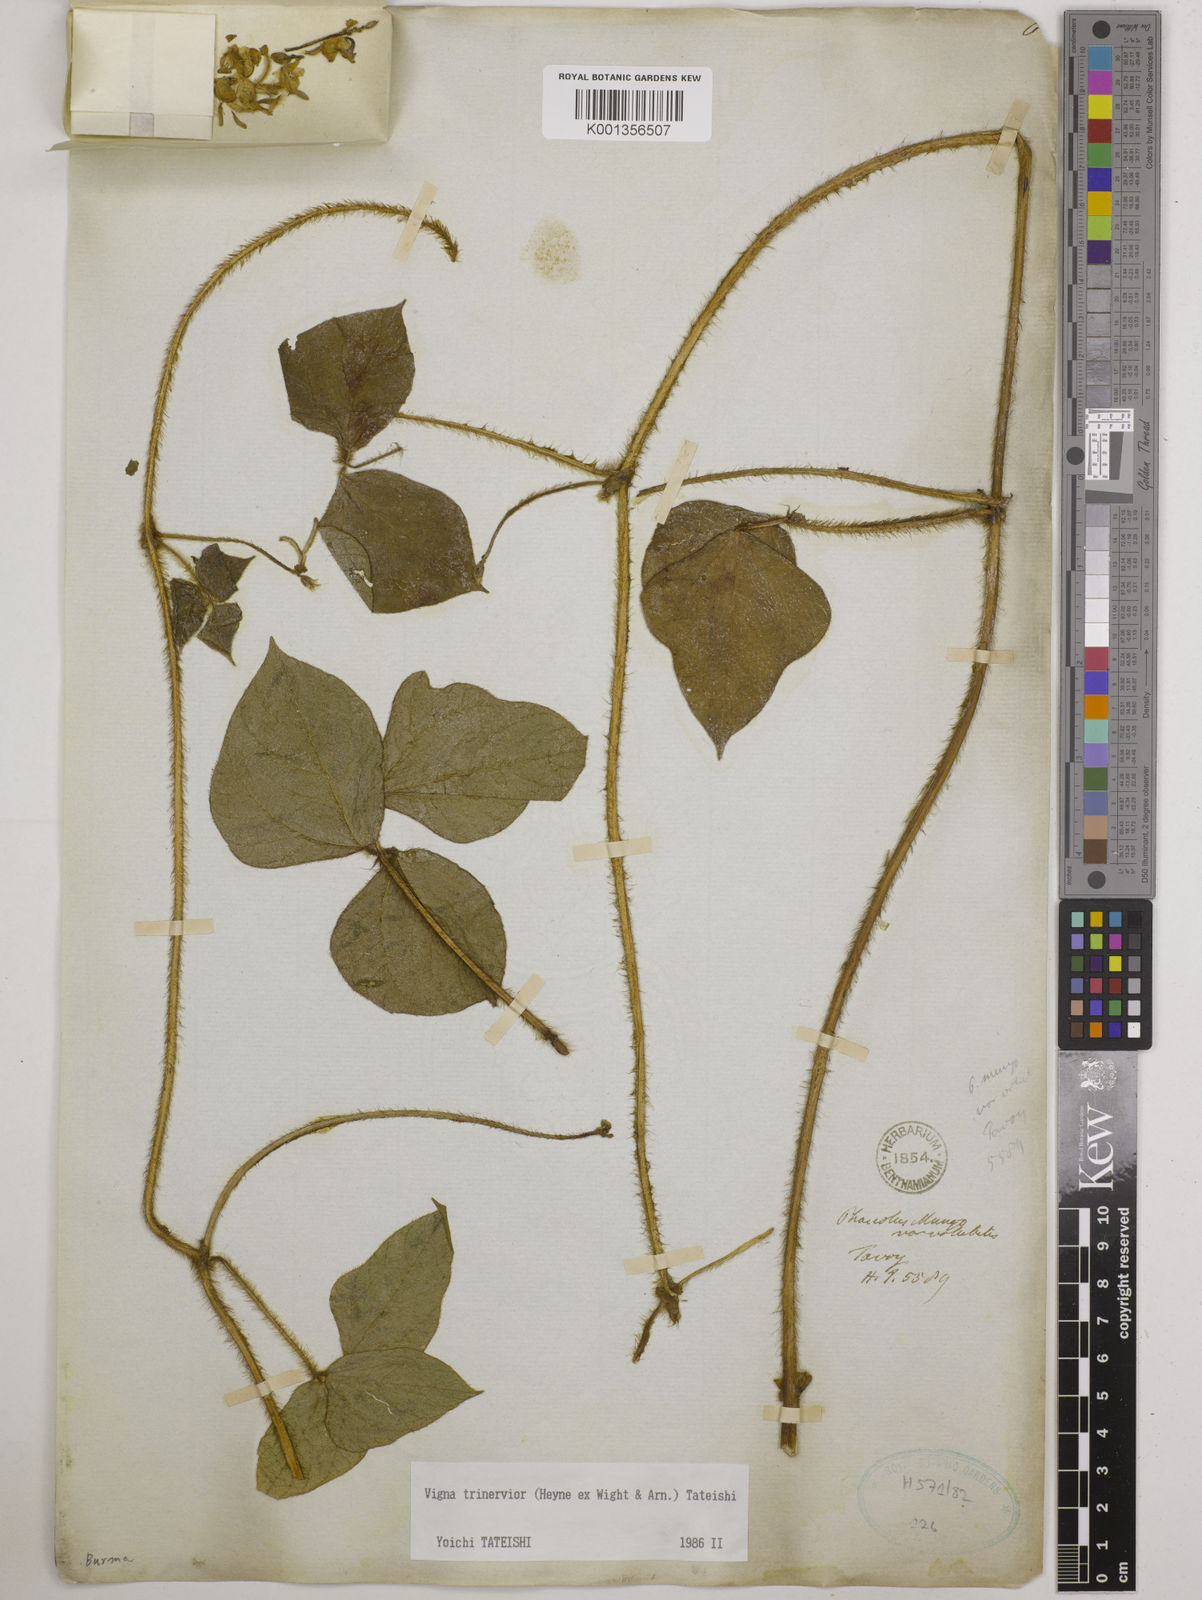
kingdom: Plantae
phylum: Tracheophyta
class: Magnoliopsida
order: Fabales
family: Fabaceae
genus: Vigna
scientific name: Vigna radiata
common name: Mung-bean
